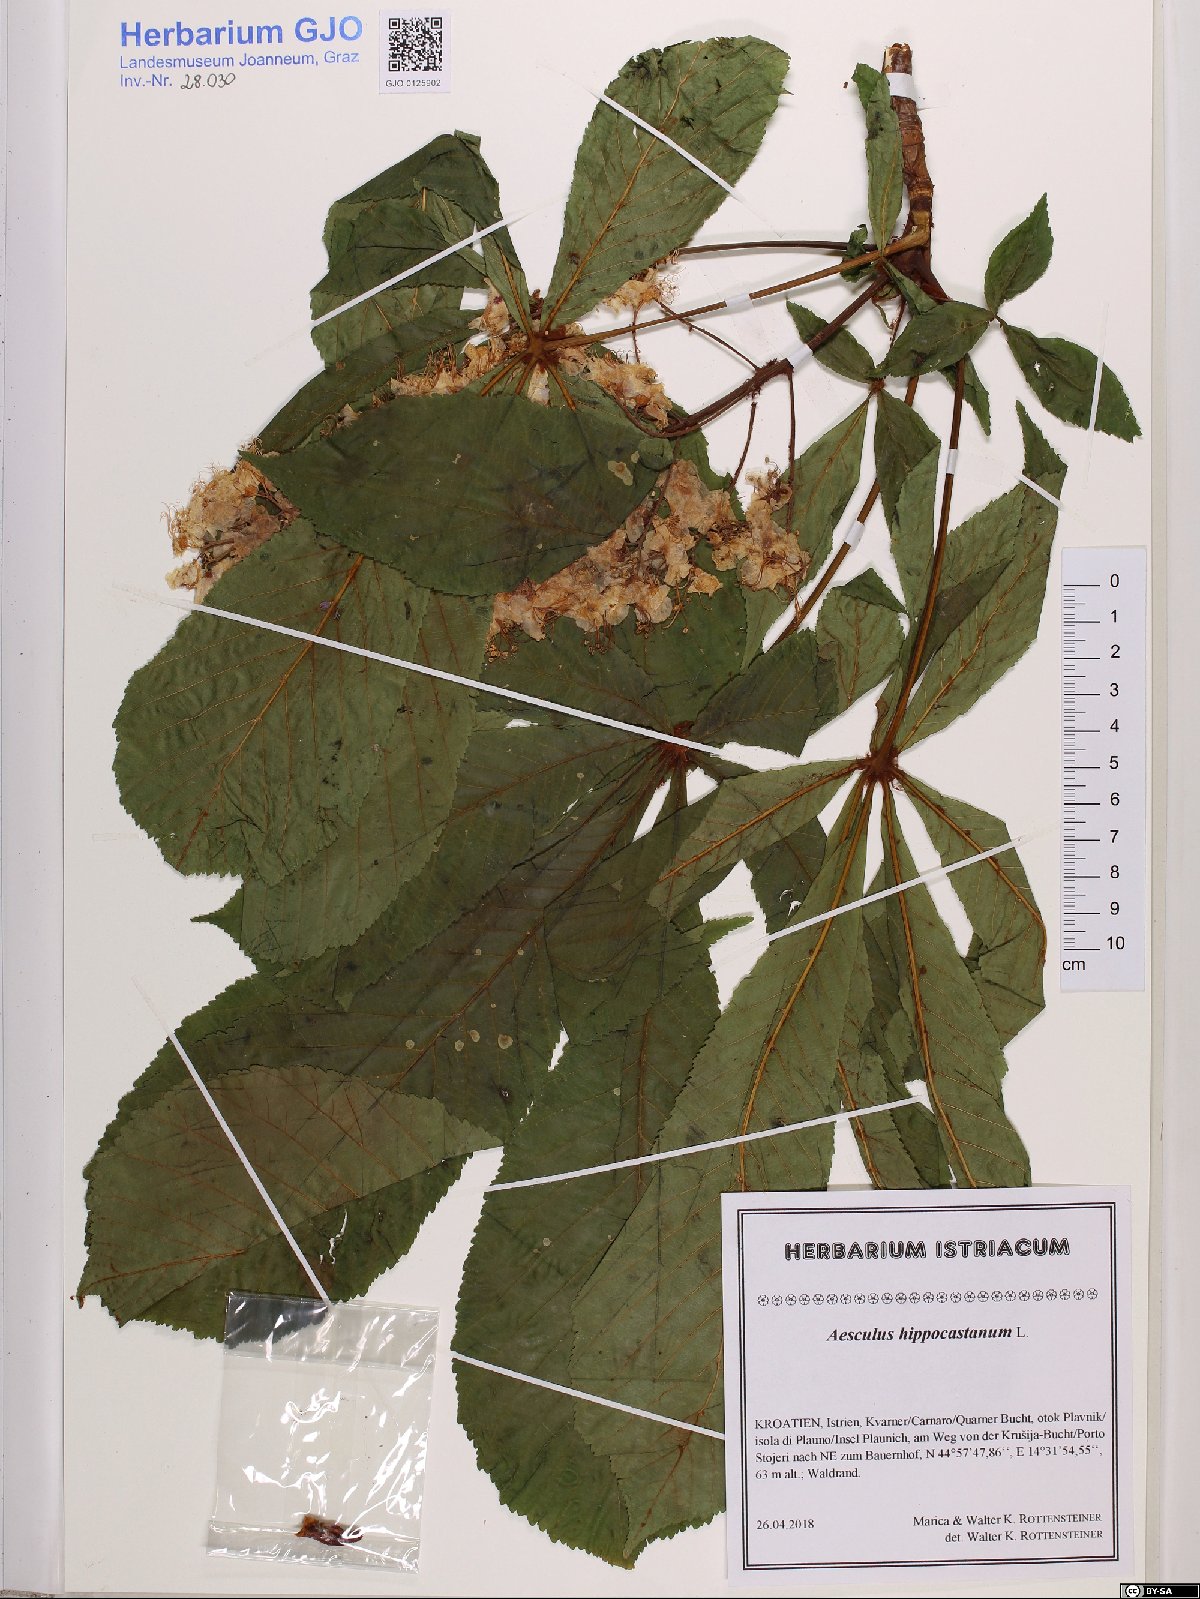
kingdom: Plantae
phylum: Tracheophyta
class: Magnoliopsida
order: Sapindales
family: Sapindaceae
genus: Aesculus
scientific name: Aesculus hippocastanum
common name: Horse-chestnut
